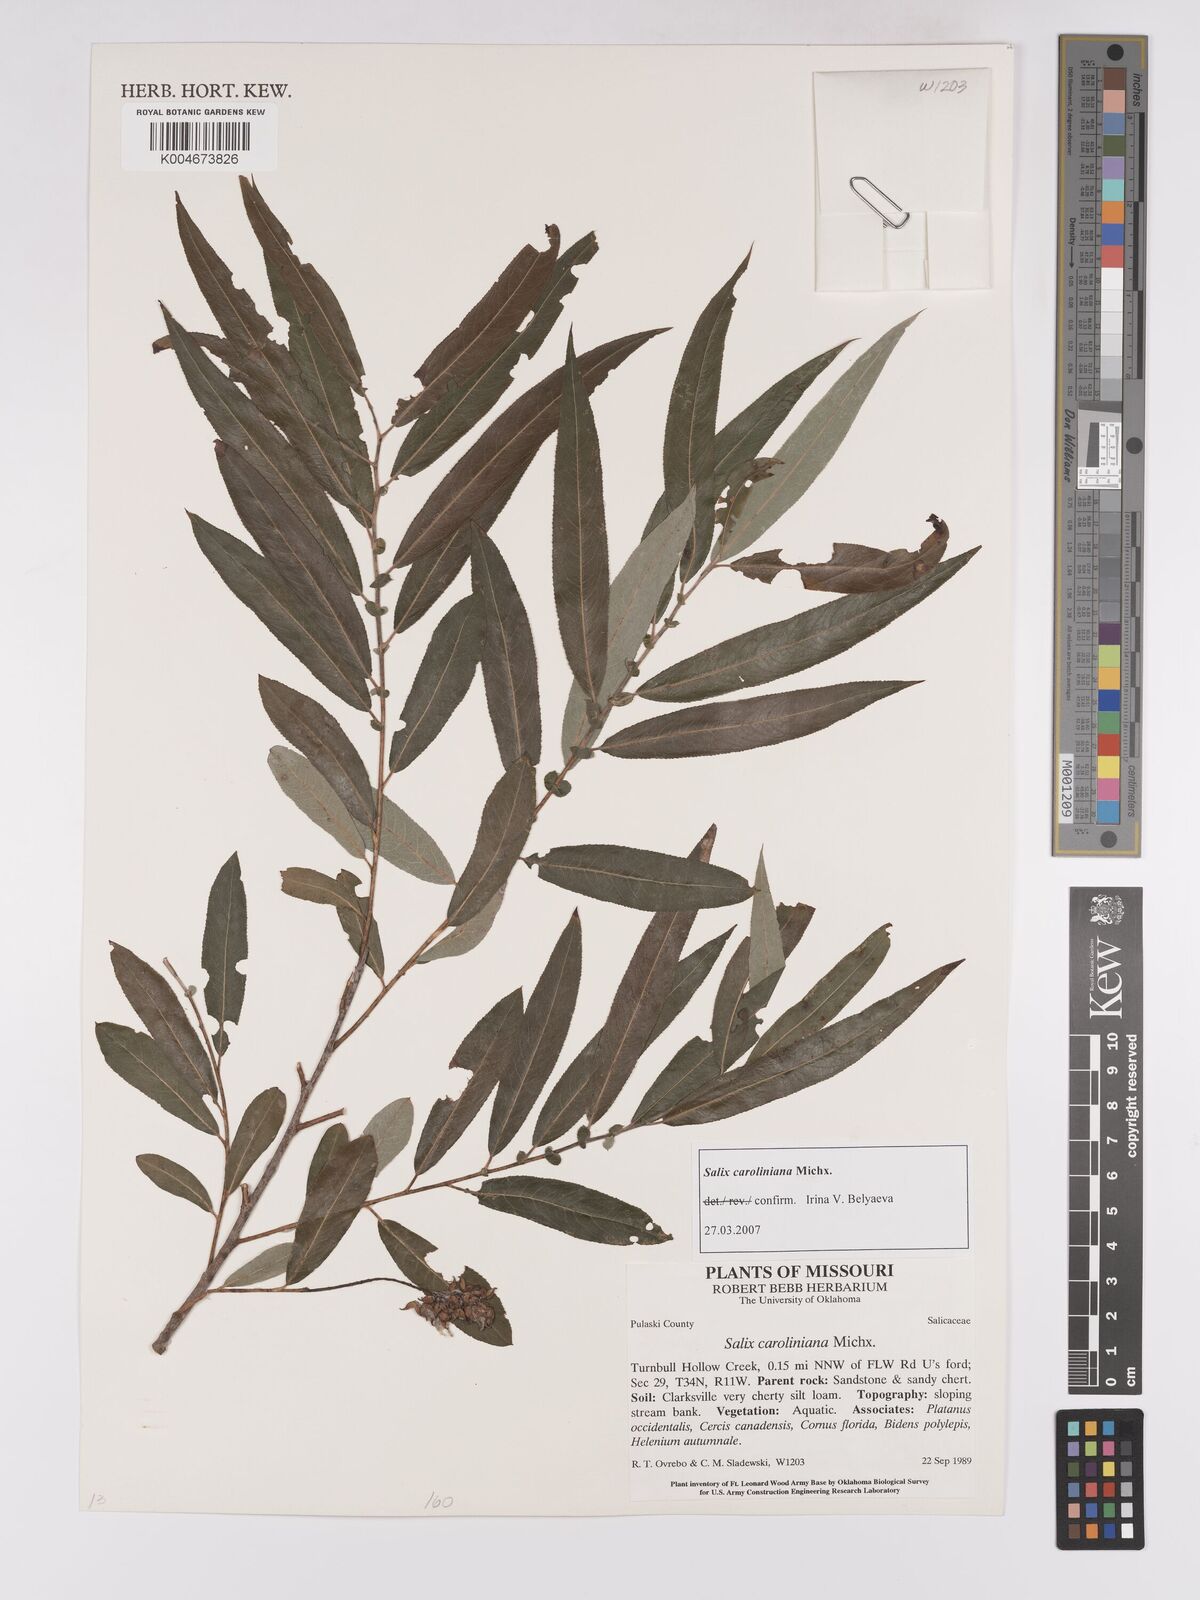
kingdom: Plantae
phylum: Tracheophyta
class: Magnoliopsida
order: Malpighiales
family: Salicaceae
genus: Salix
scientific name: Salix caroliniana
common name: Carolina willow
